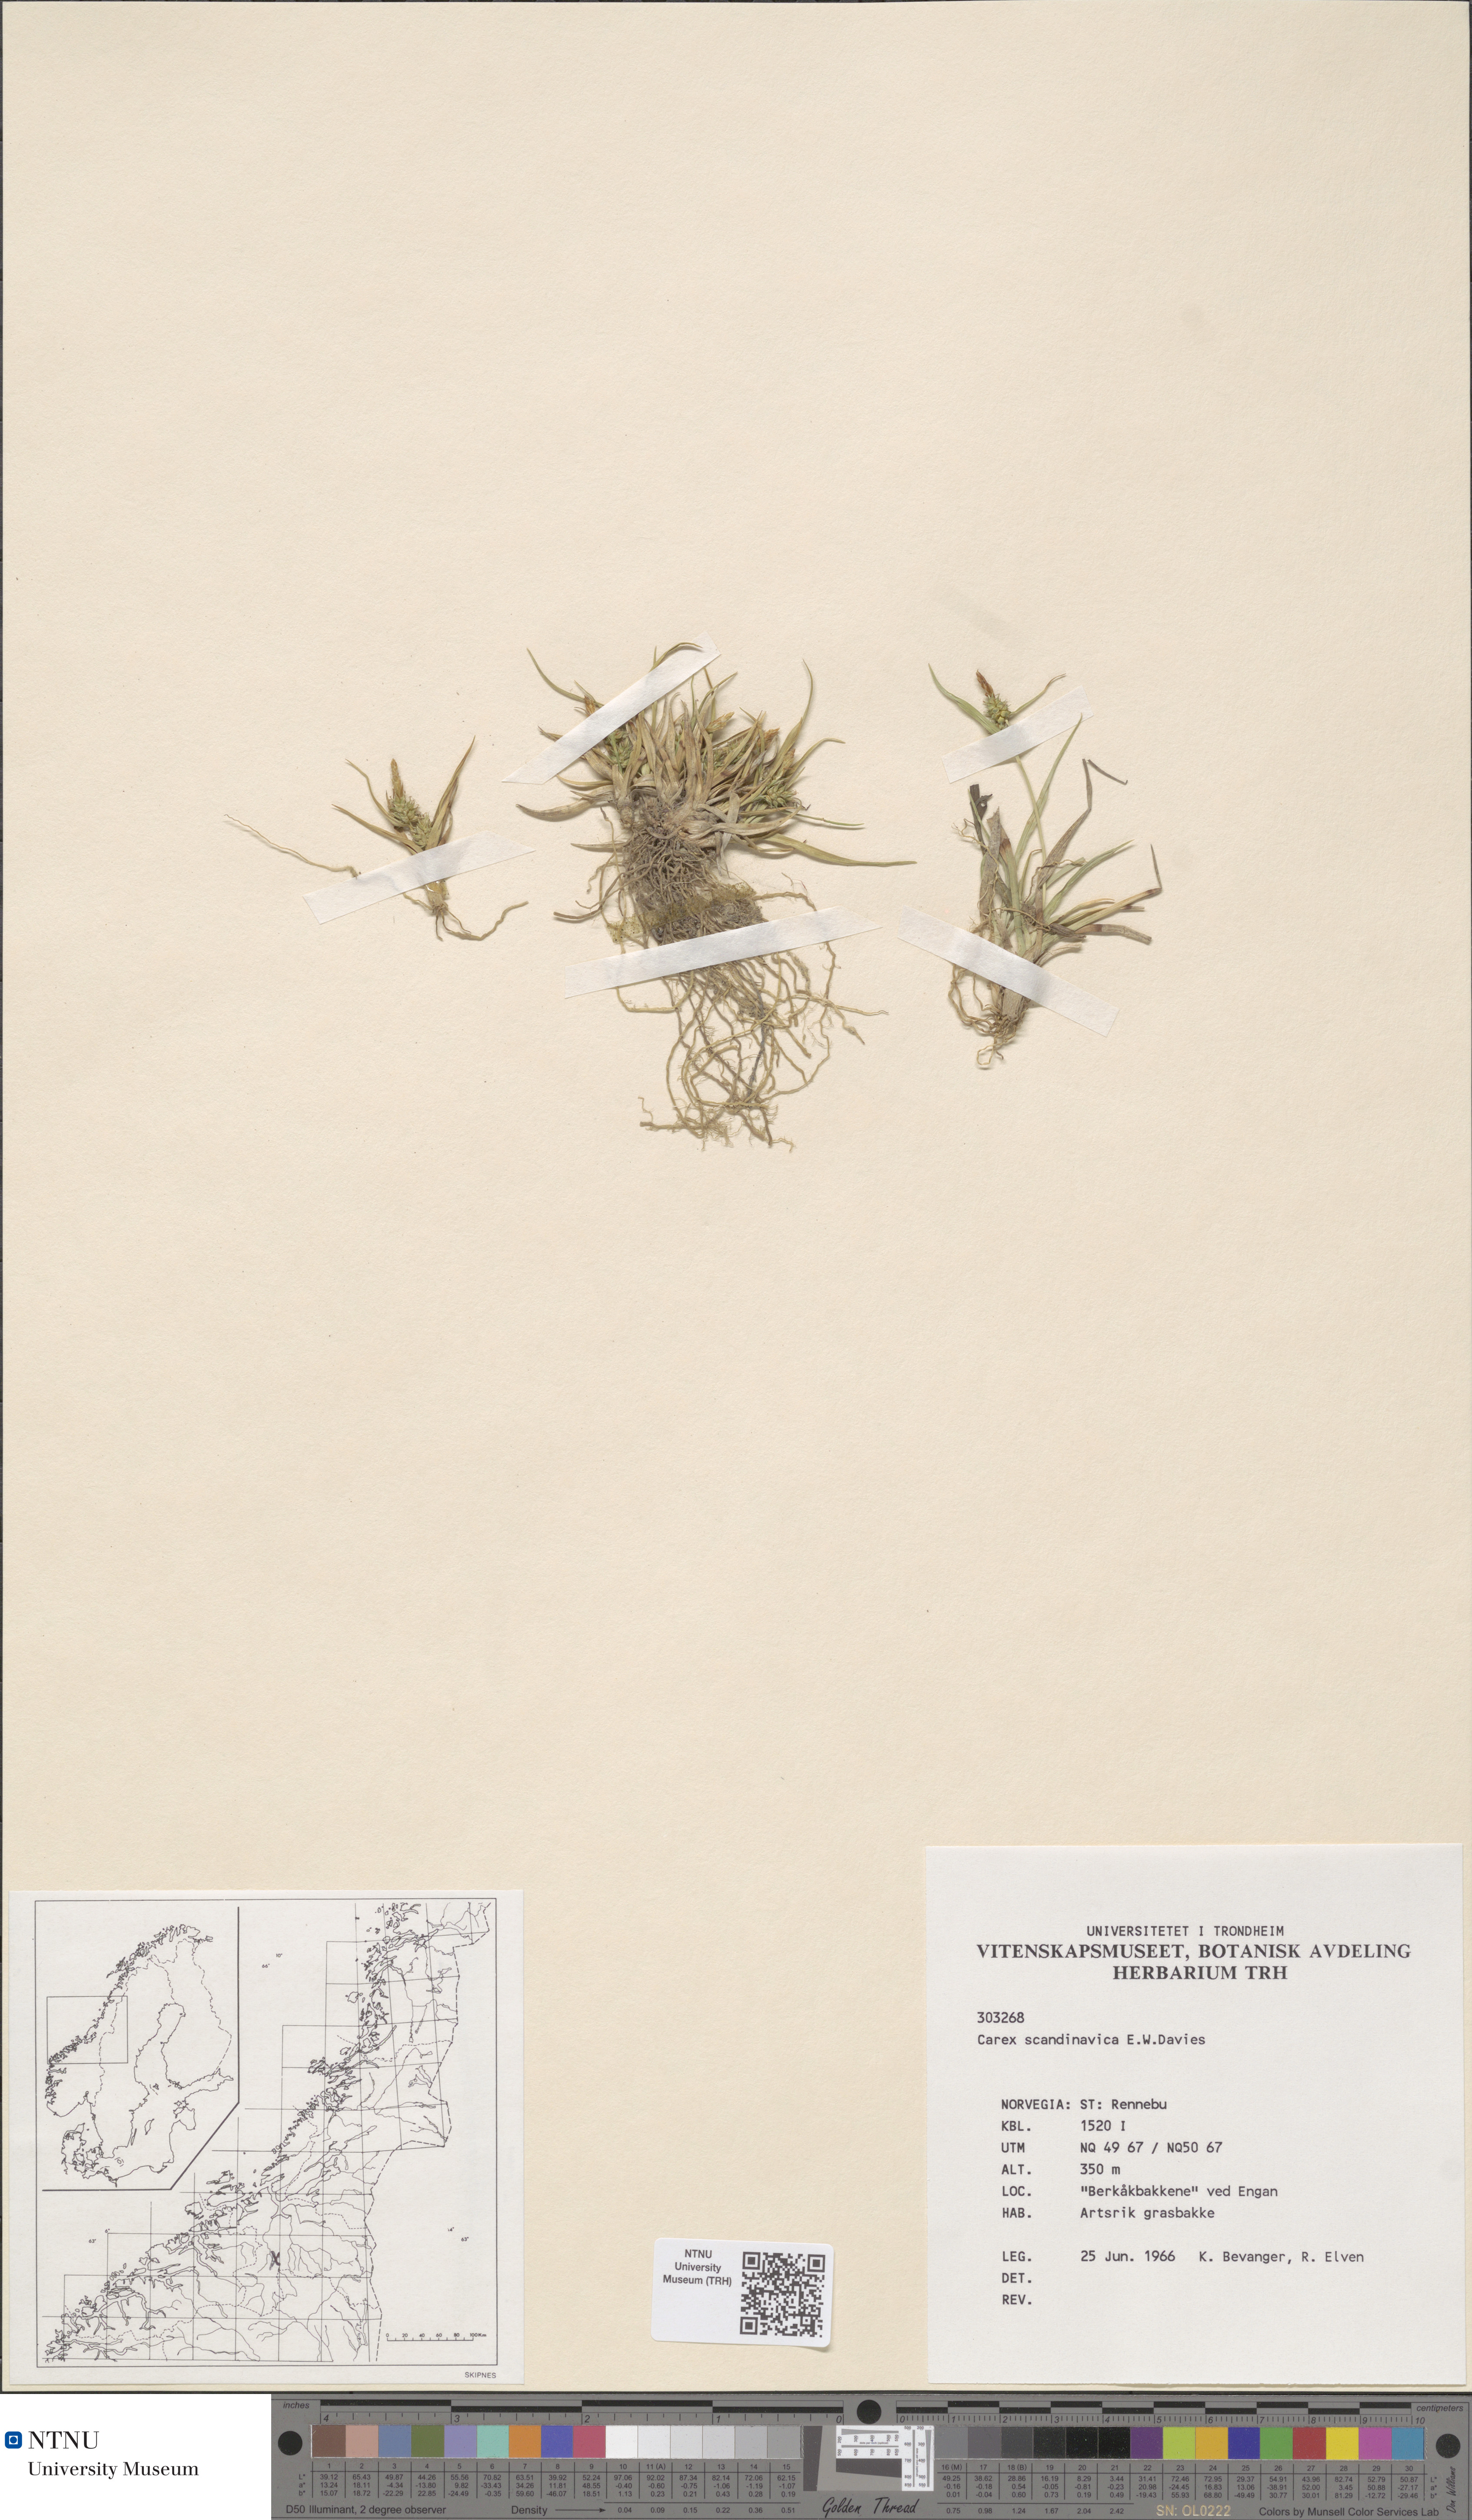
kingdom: Plantae
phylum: Tracheophyta
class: Liliopsida
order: Poales
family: Cyperaceae
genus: Carex
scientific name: Carex oederi
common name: Common & small-fruited yellow-sedge
